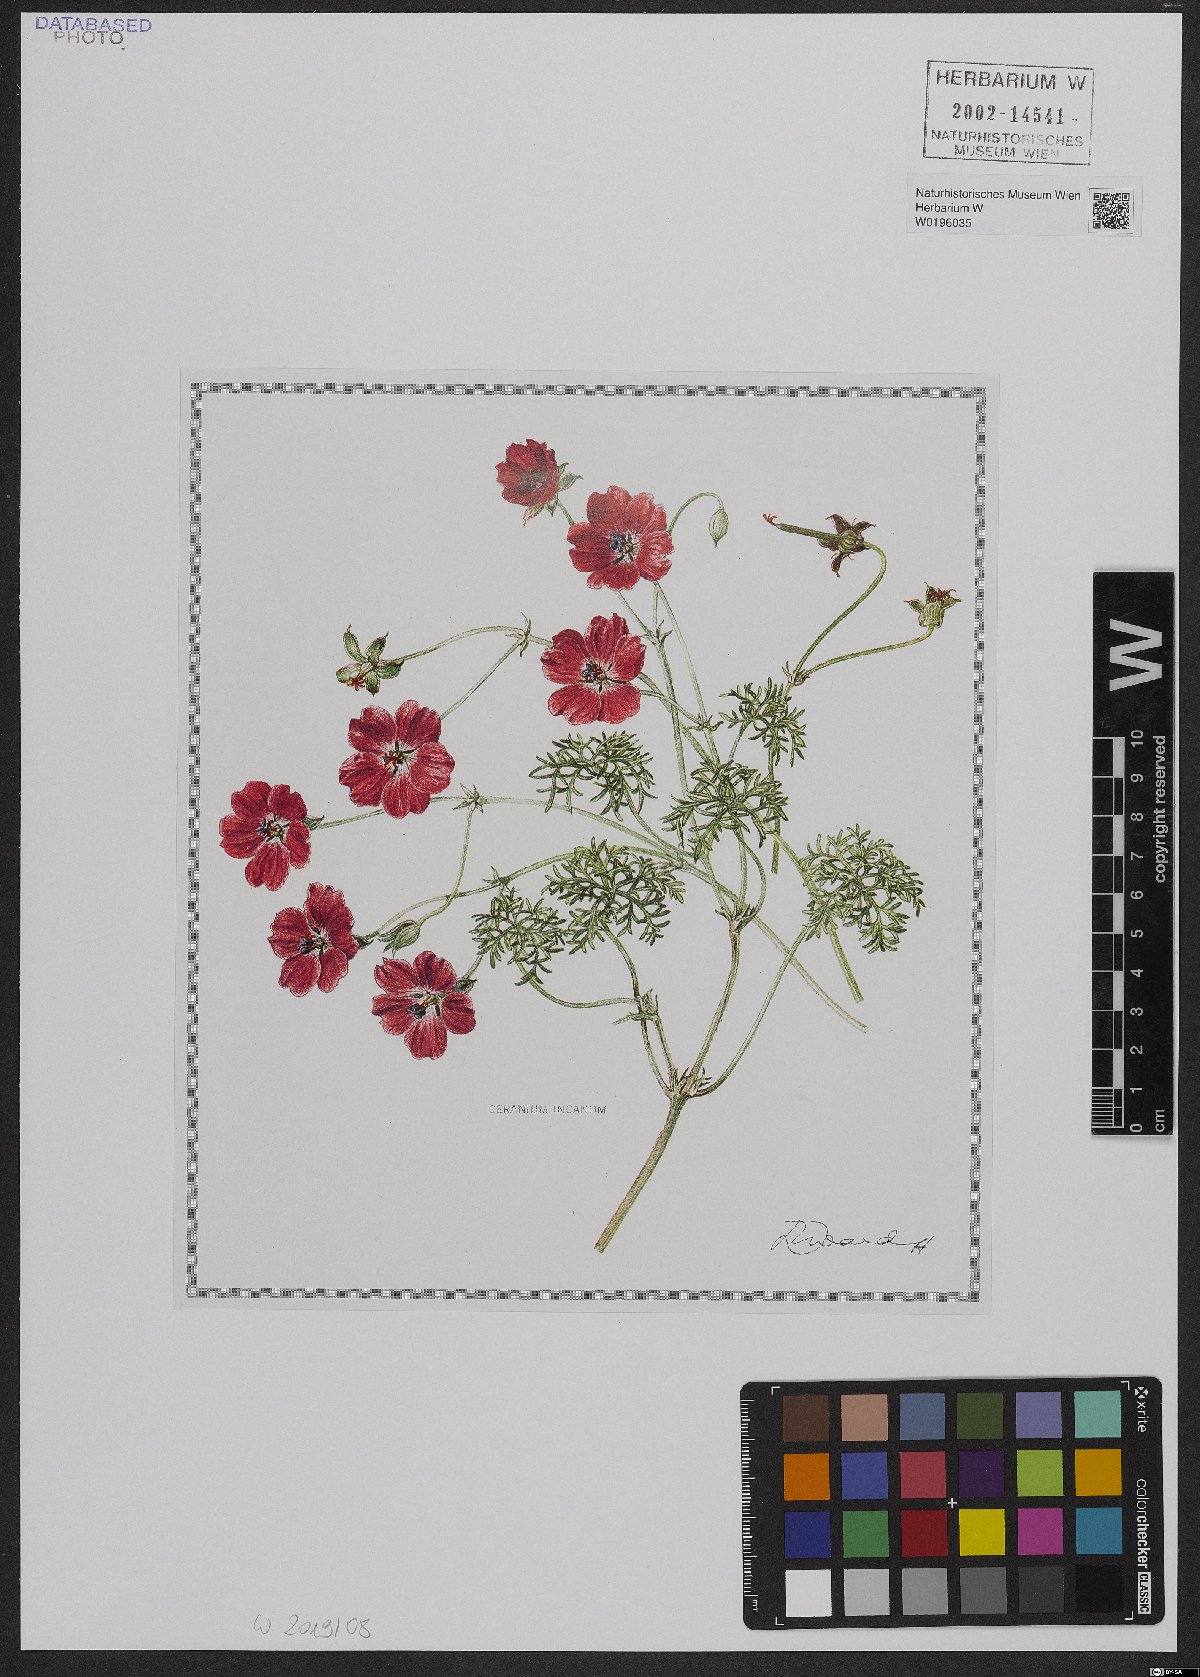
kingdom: Plantae
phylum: Tracheophyta
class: Magnoliopsida
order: Geraniales
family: Geraniaceae
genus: Geranium
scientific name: Geranium incanum
